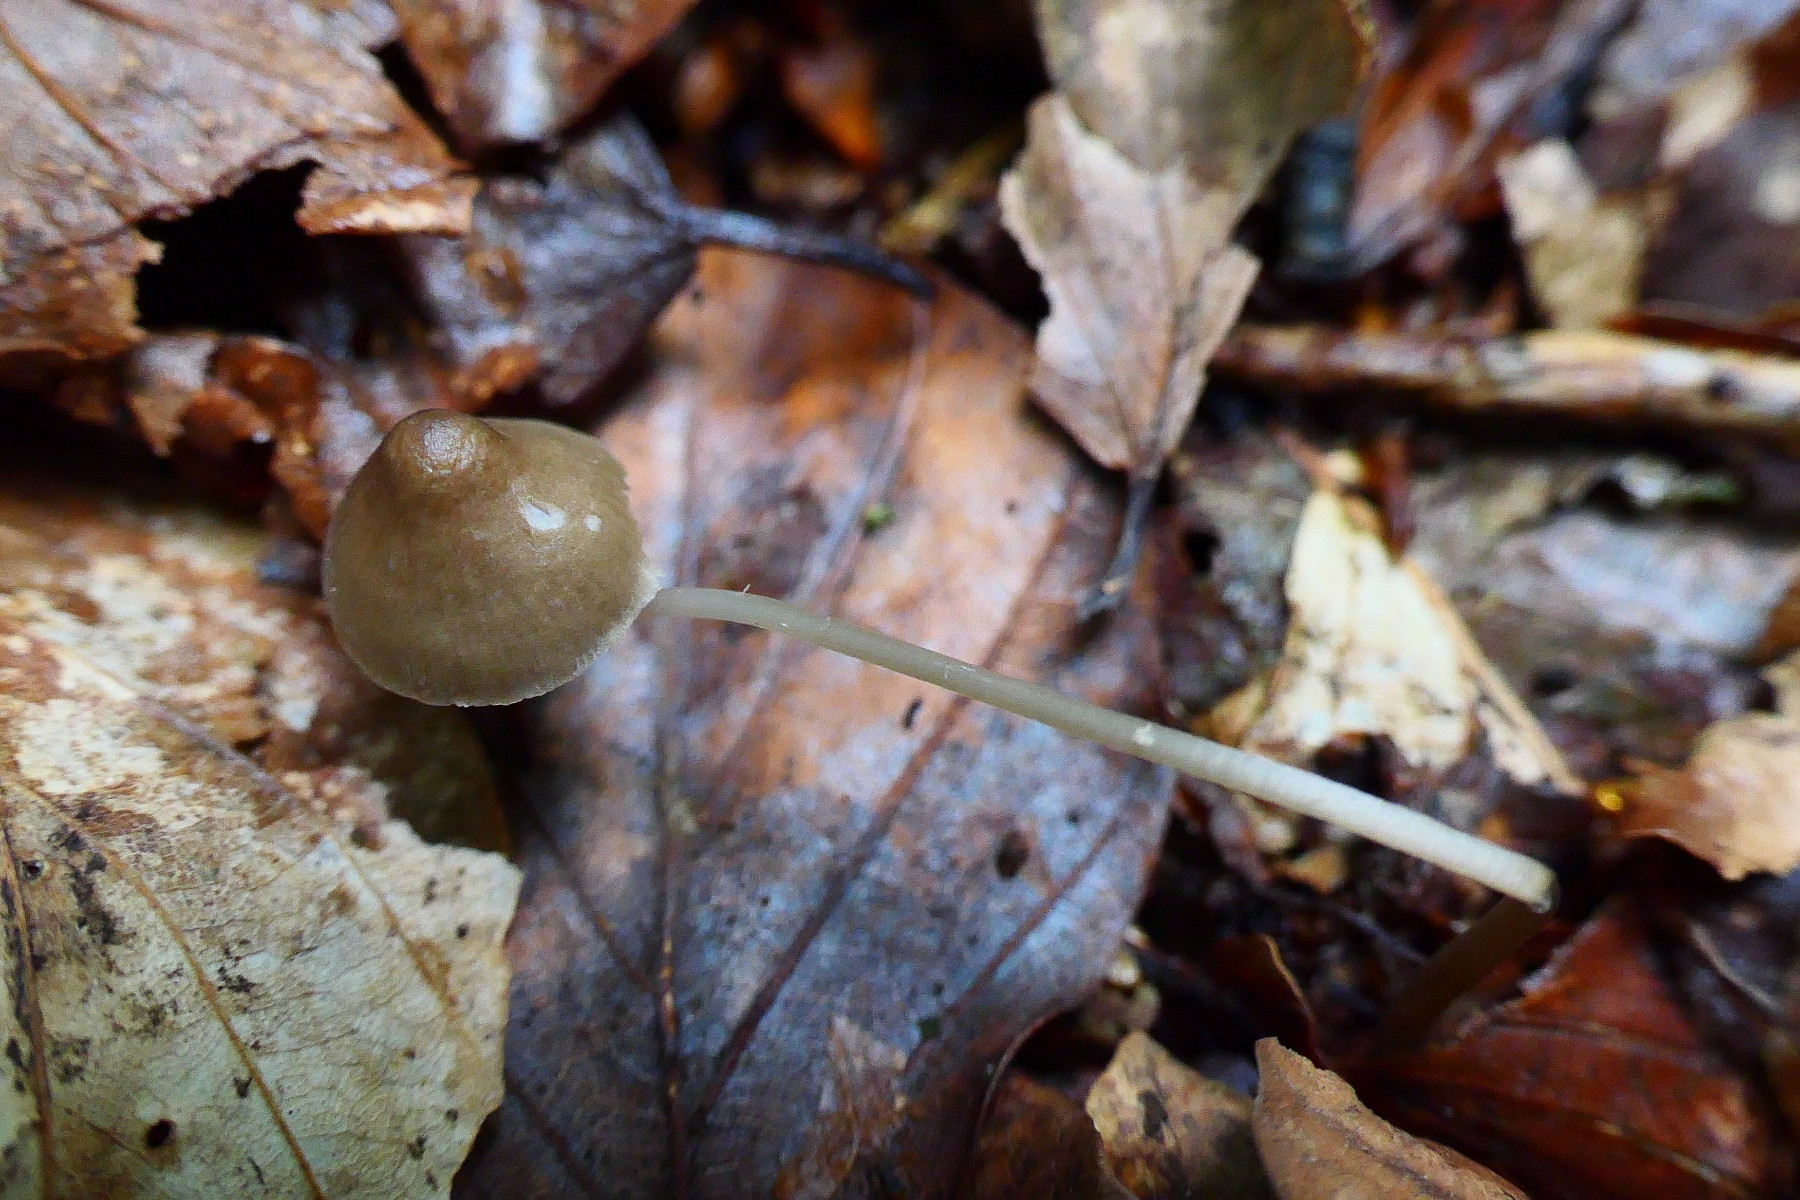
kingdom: Fungi
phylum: Basidiomycota
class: Agaricomycetes
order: Agaricales
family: Mycenaceae
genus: Mycena
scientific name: Mycena vitilis
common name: blankstokket huesvamp
